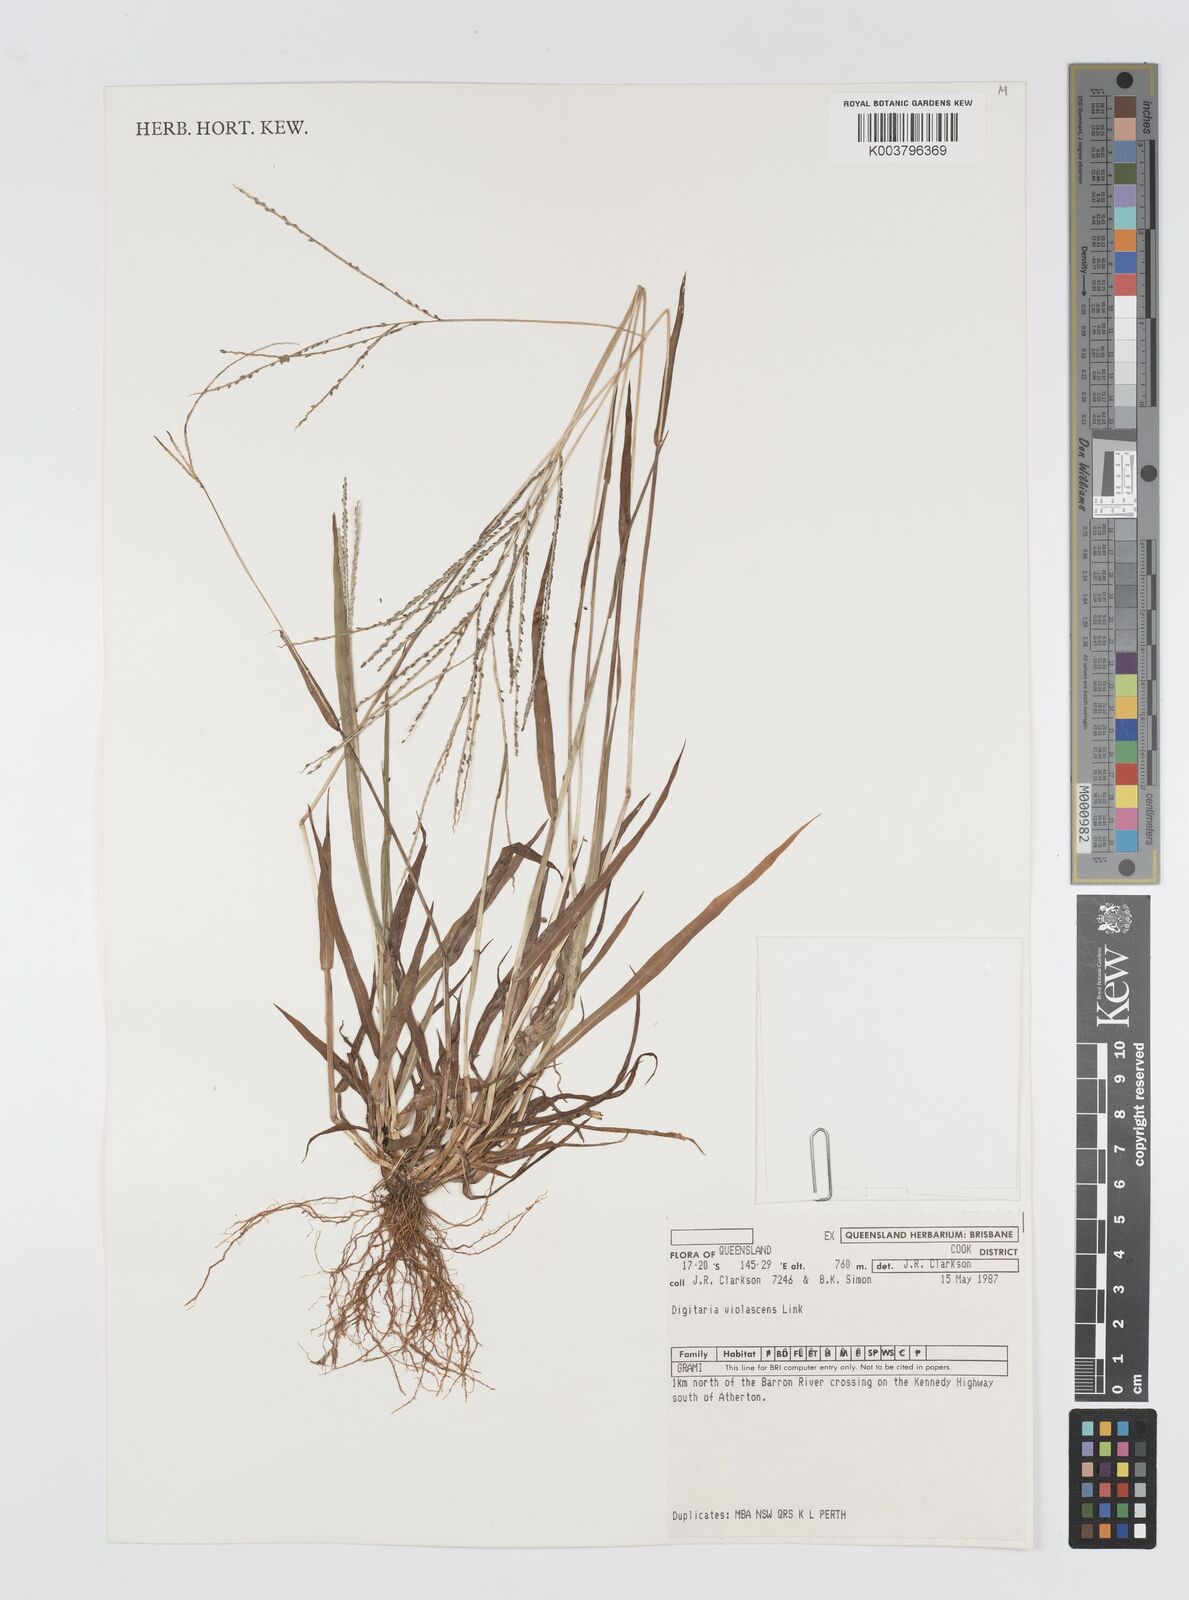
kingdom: Plantae
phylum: Tracheophyta
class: Liliopsida
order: Poales
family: Poaceae
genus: Digitaria
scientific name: Digitaria violascens
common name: Violet crabgrass
